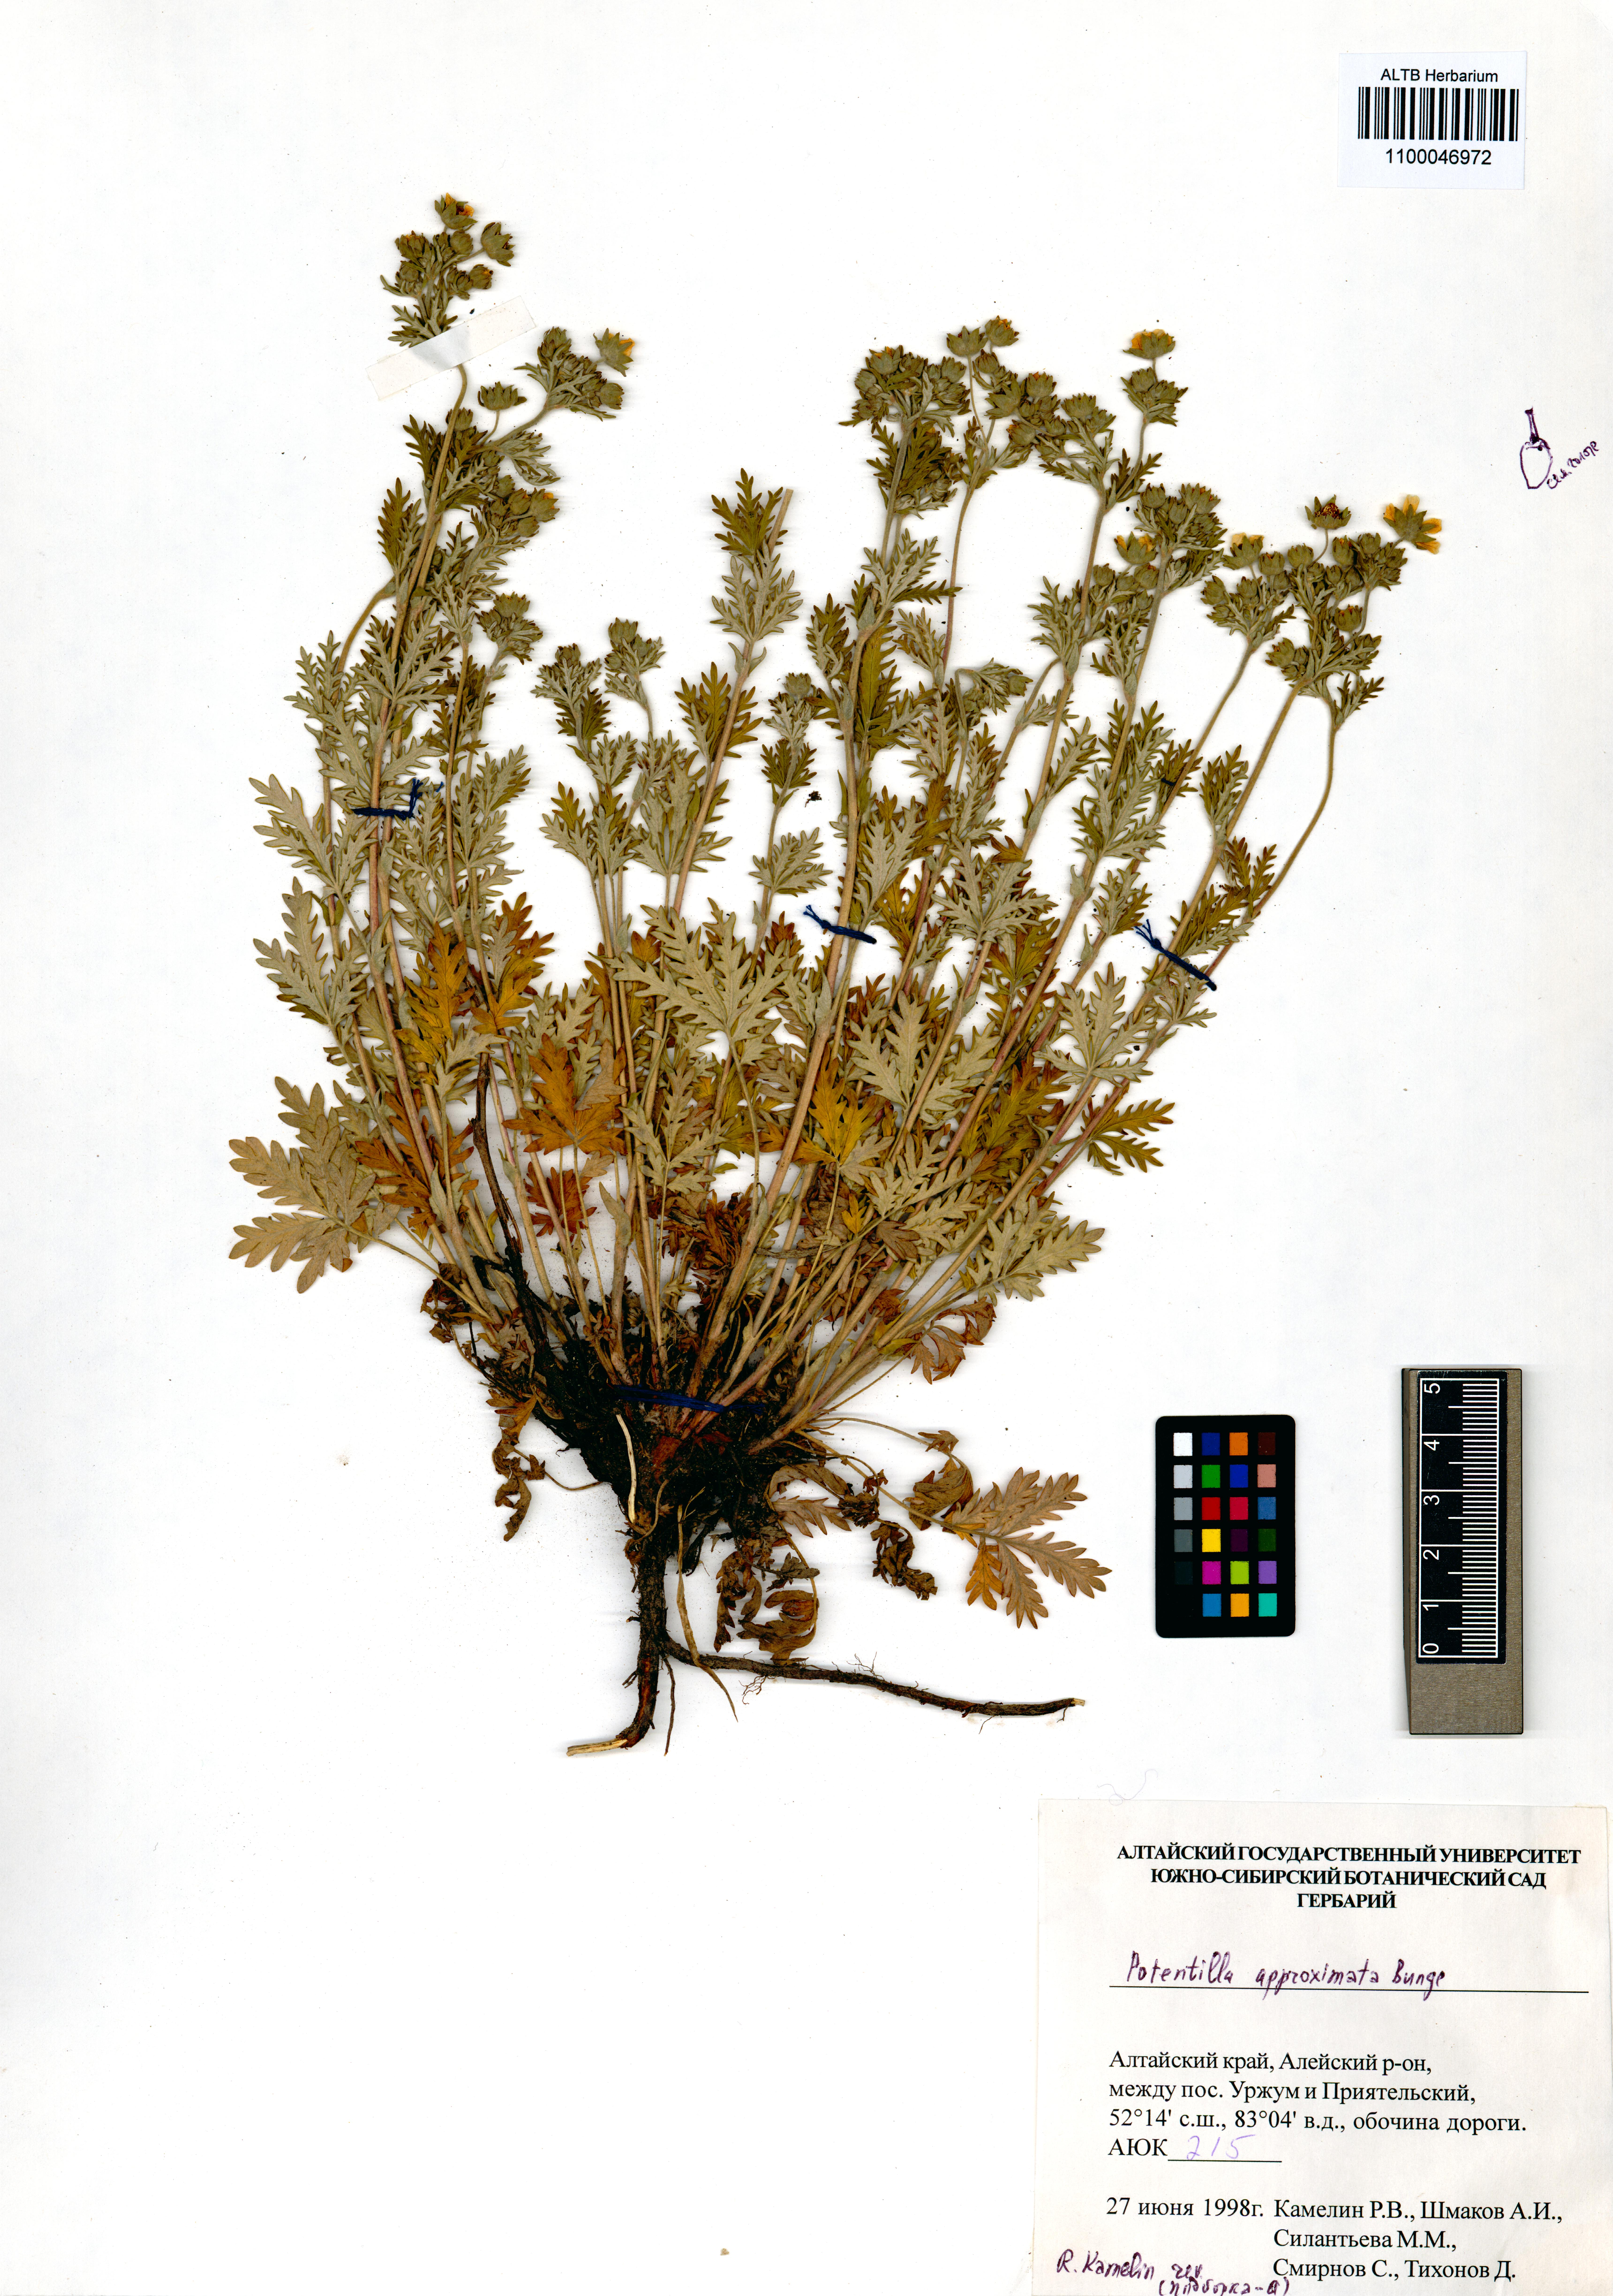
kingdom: Plantae
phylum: Tracheophyta
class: Magnoliopsida
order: Rosales
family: Rosaceae
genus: Potentilla
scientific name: Potentilla conferta
